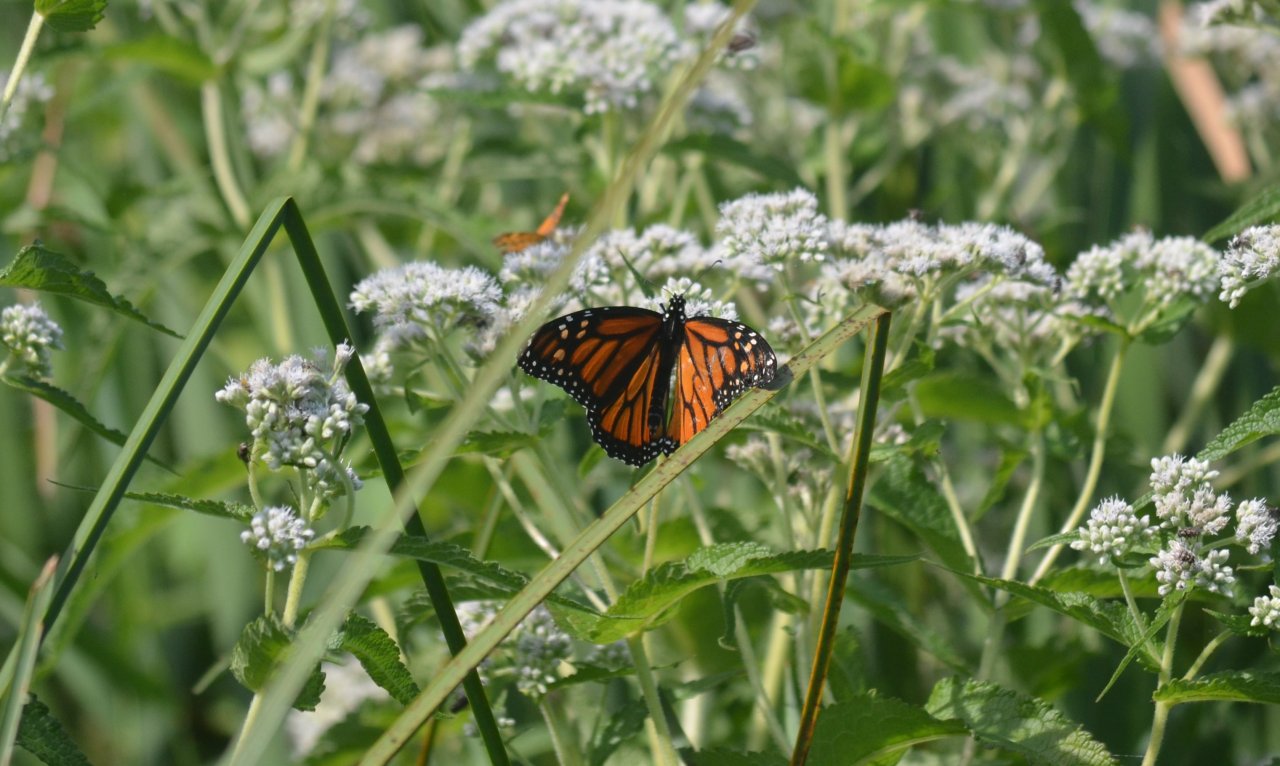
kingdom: Animalia
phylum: Arthropoda
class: Insecta
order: Lepidoptera
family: Nymphalidae
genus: Danaus
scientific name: Danaus plexippus
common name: Monarch
